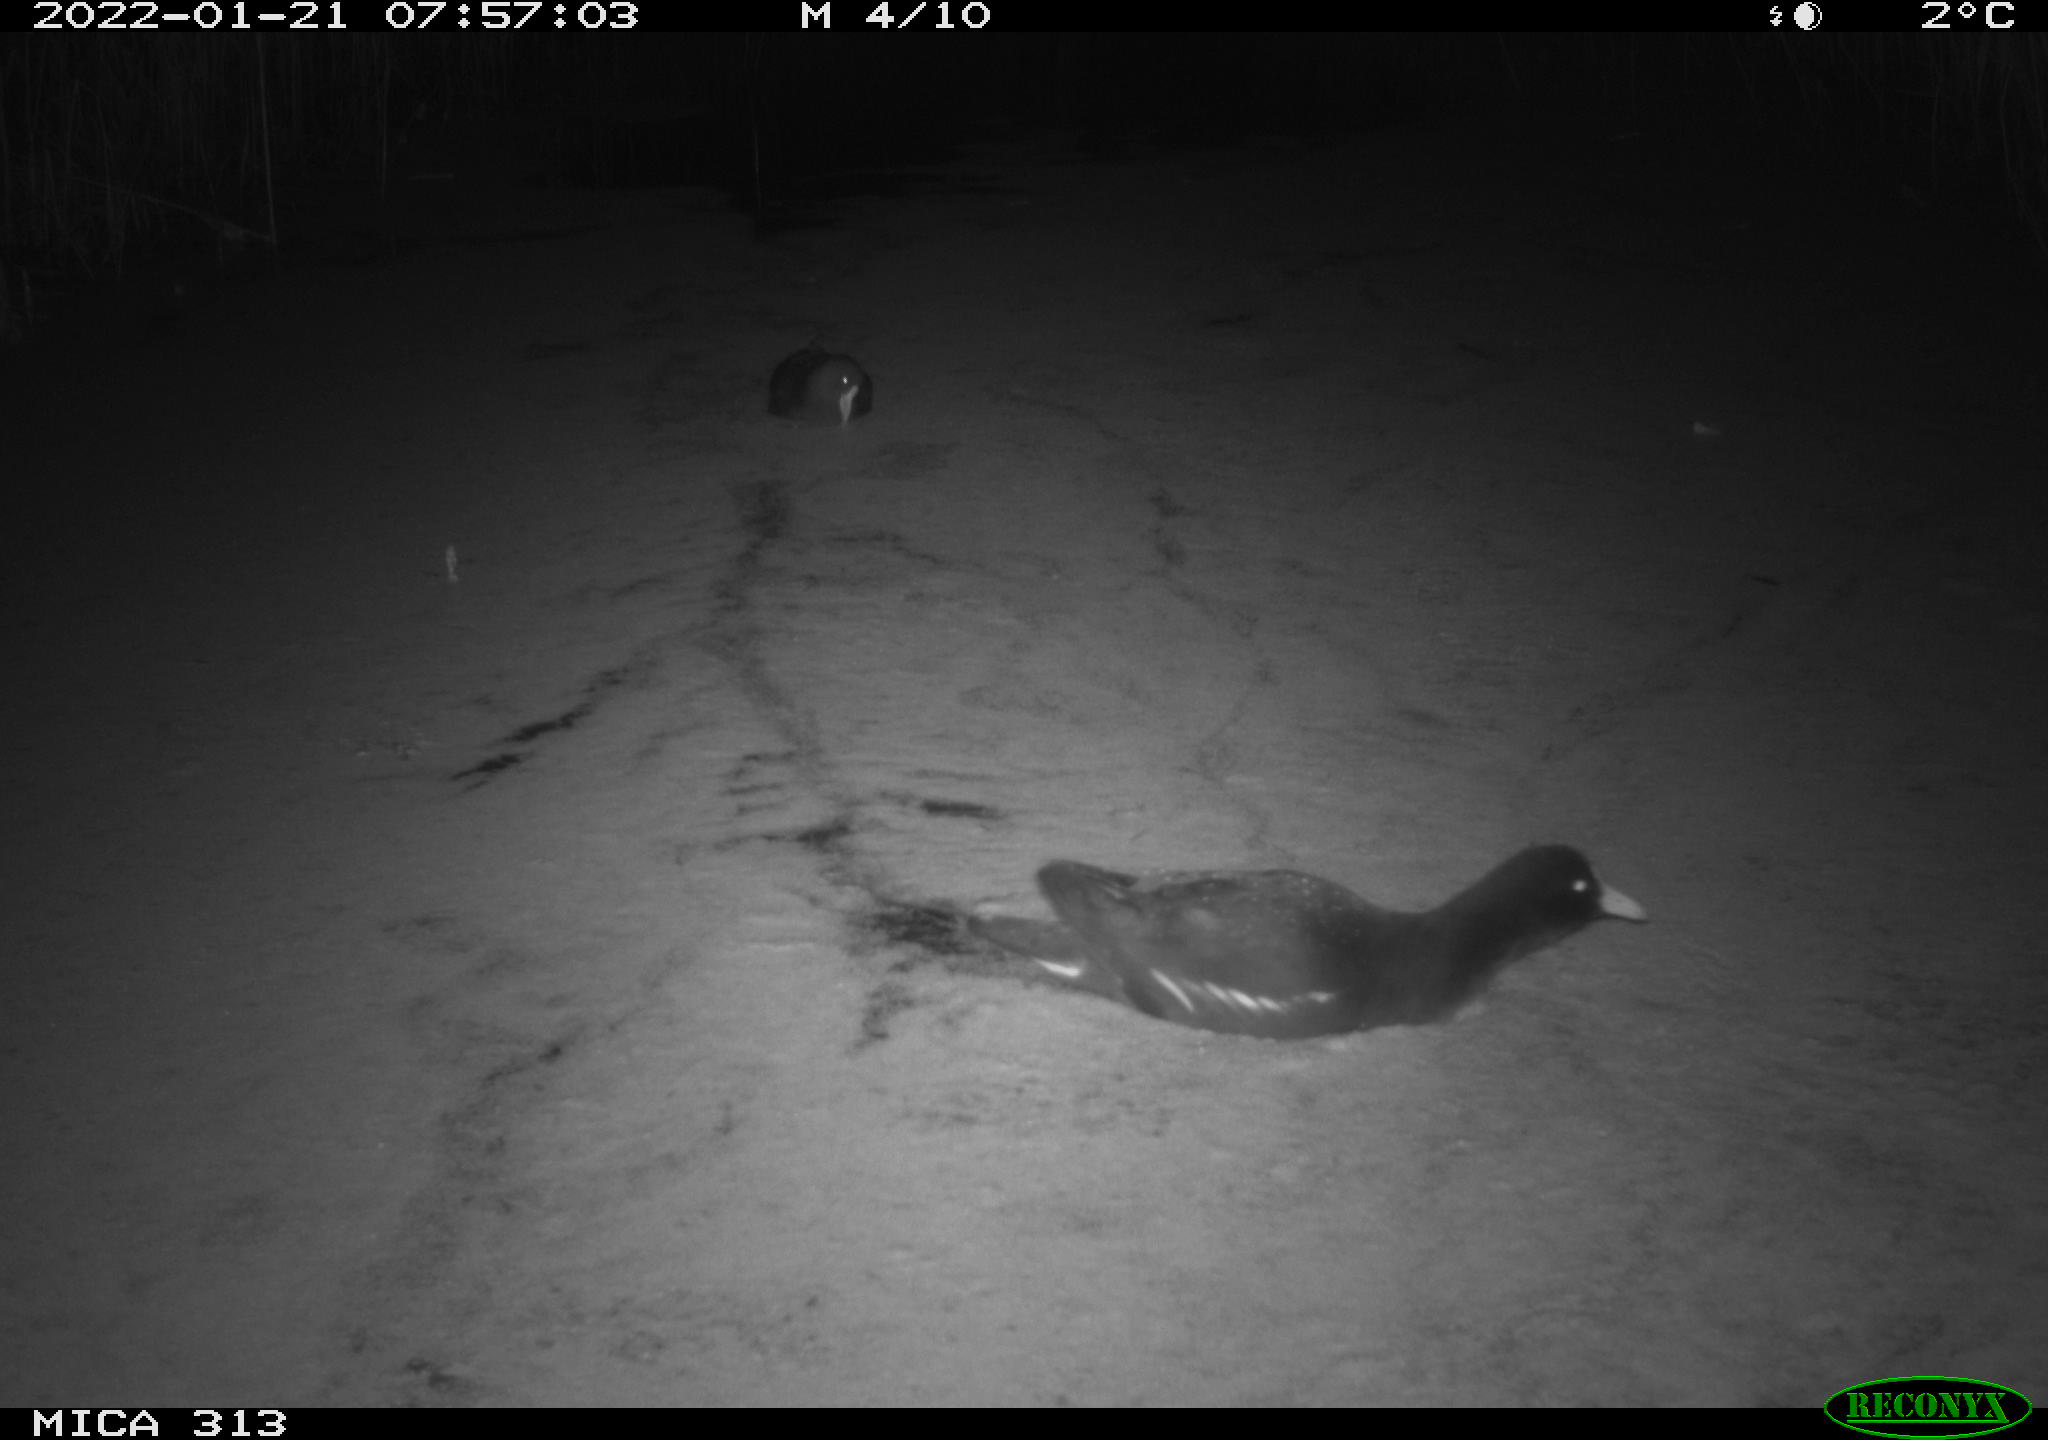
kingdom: Animalia
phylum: Chordata
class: Aves
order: Gruiformes
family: Rallidae
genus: Gallinula
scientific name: Gallinula chloropus
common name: Common moorhen
